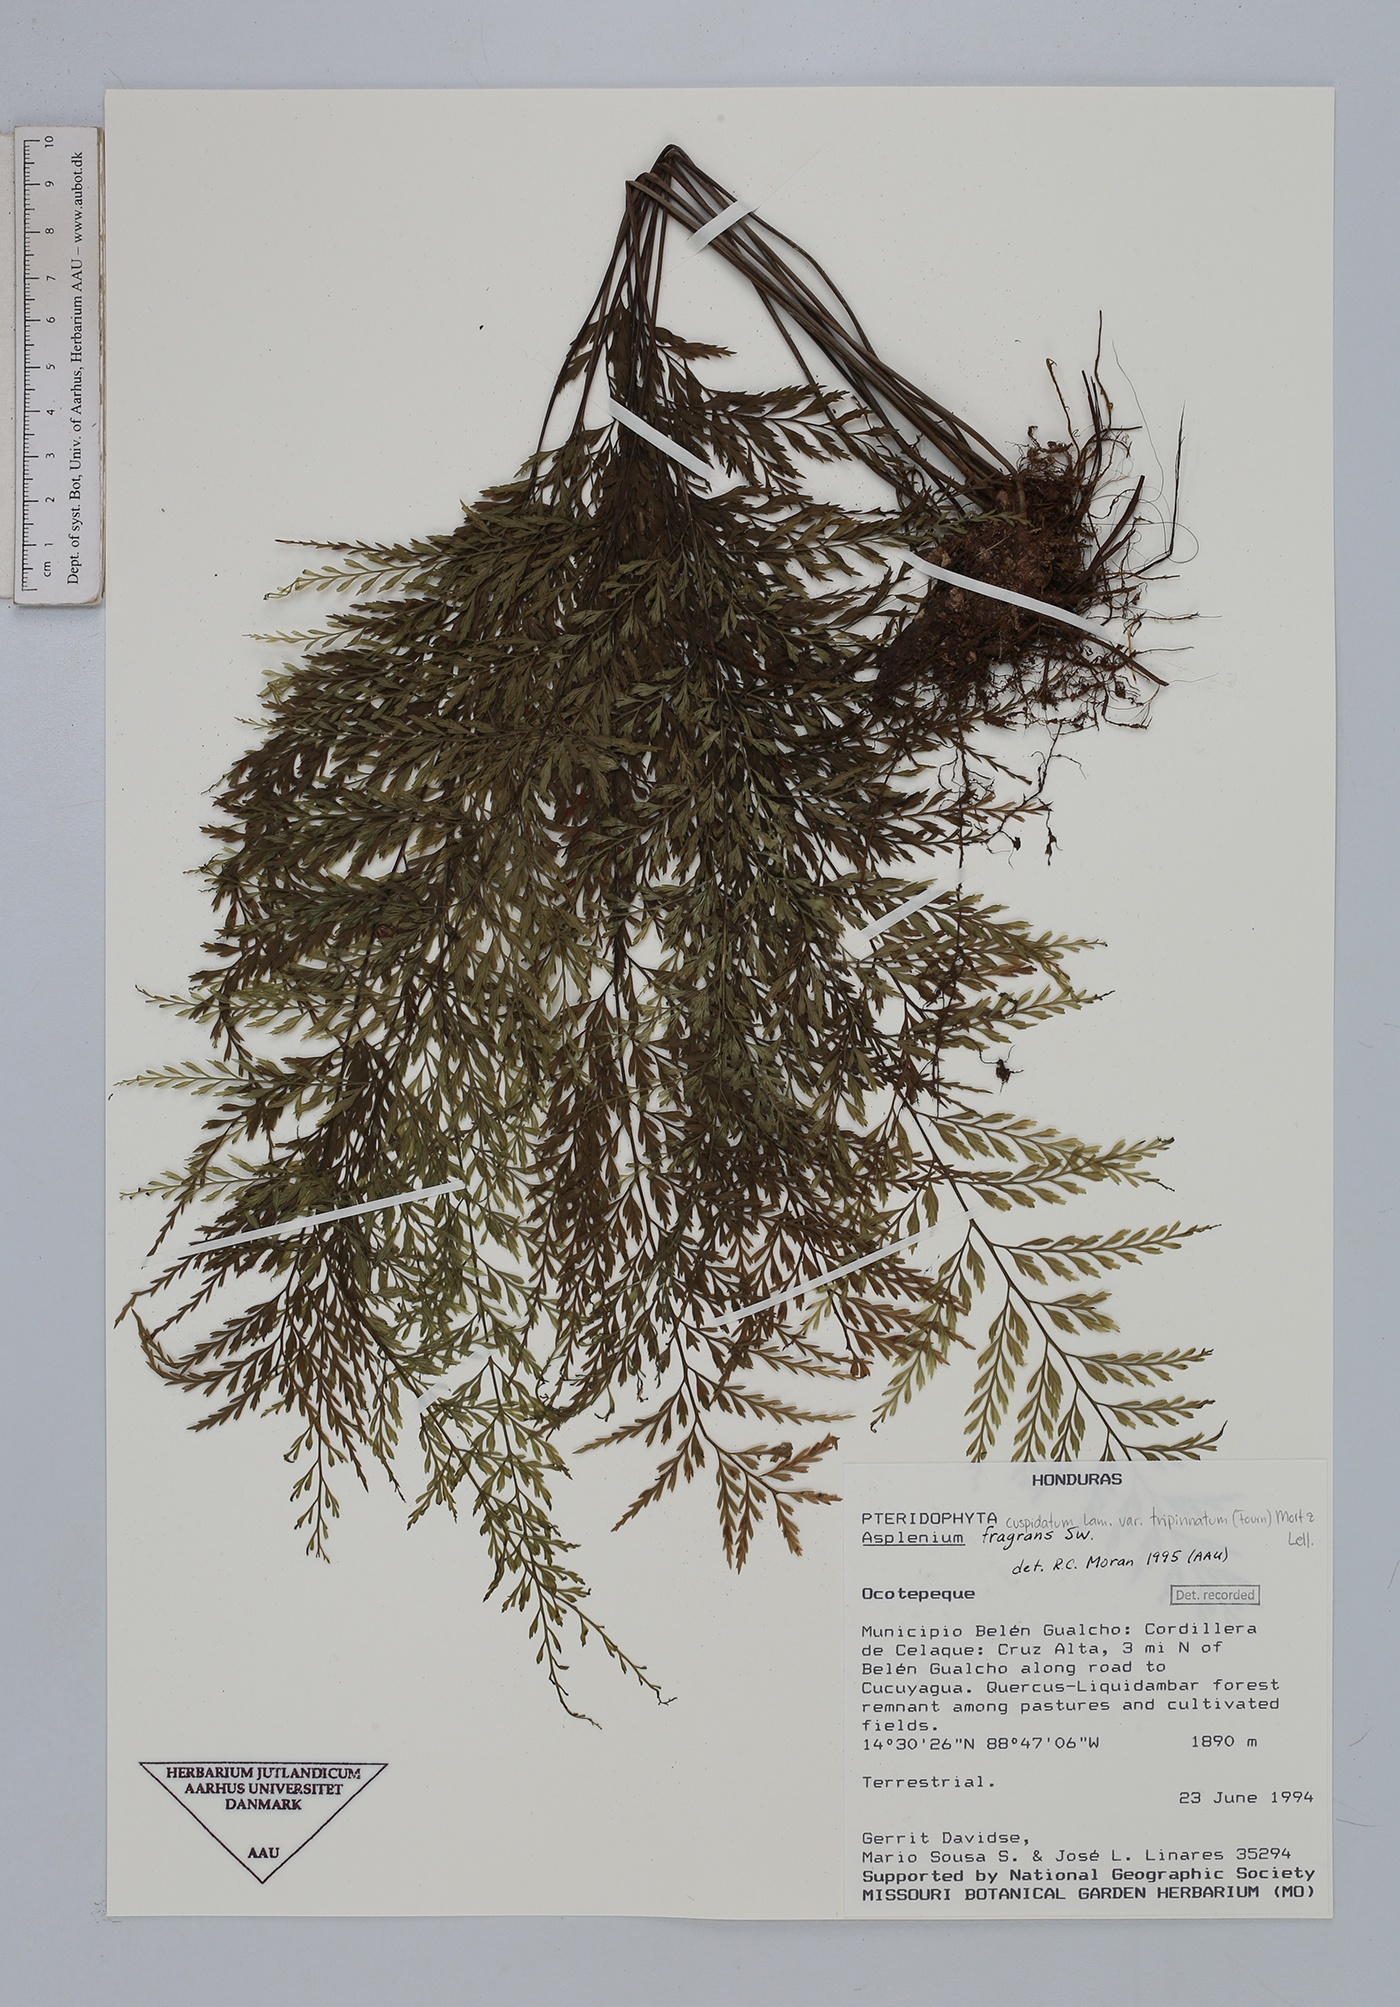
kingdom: Plantae
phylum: Tracheophyta
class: Polypodiopsida
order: Polypodiales
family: Aspleniaceae
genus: Asplenium
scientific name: Asplenium fragrans
